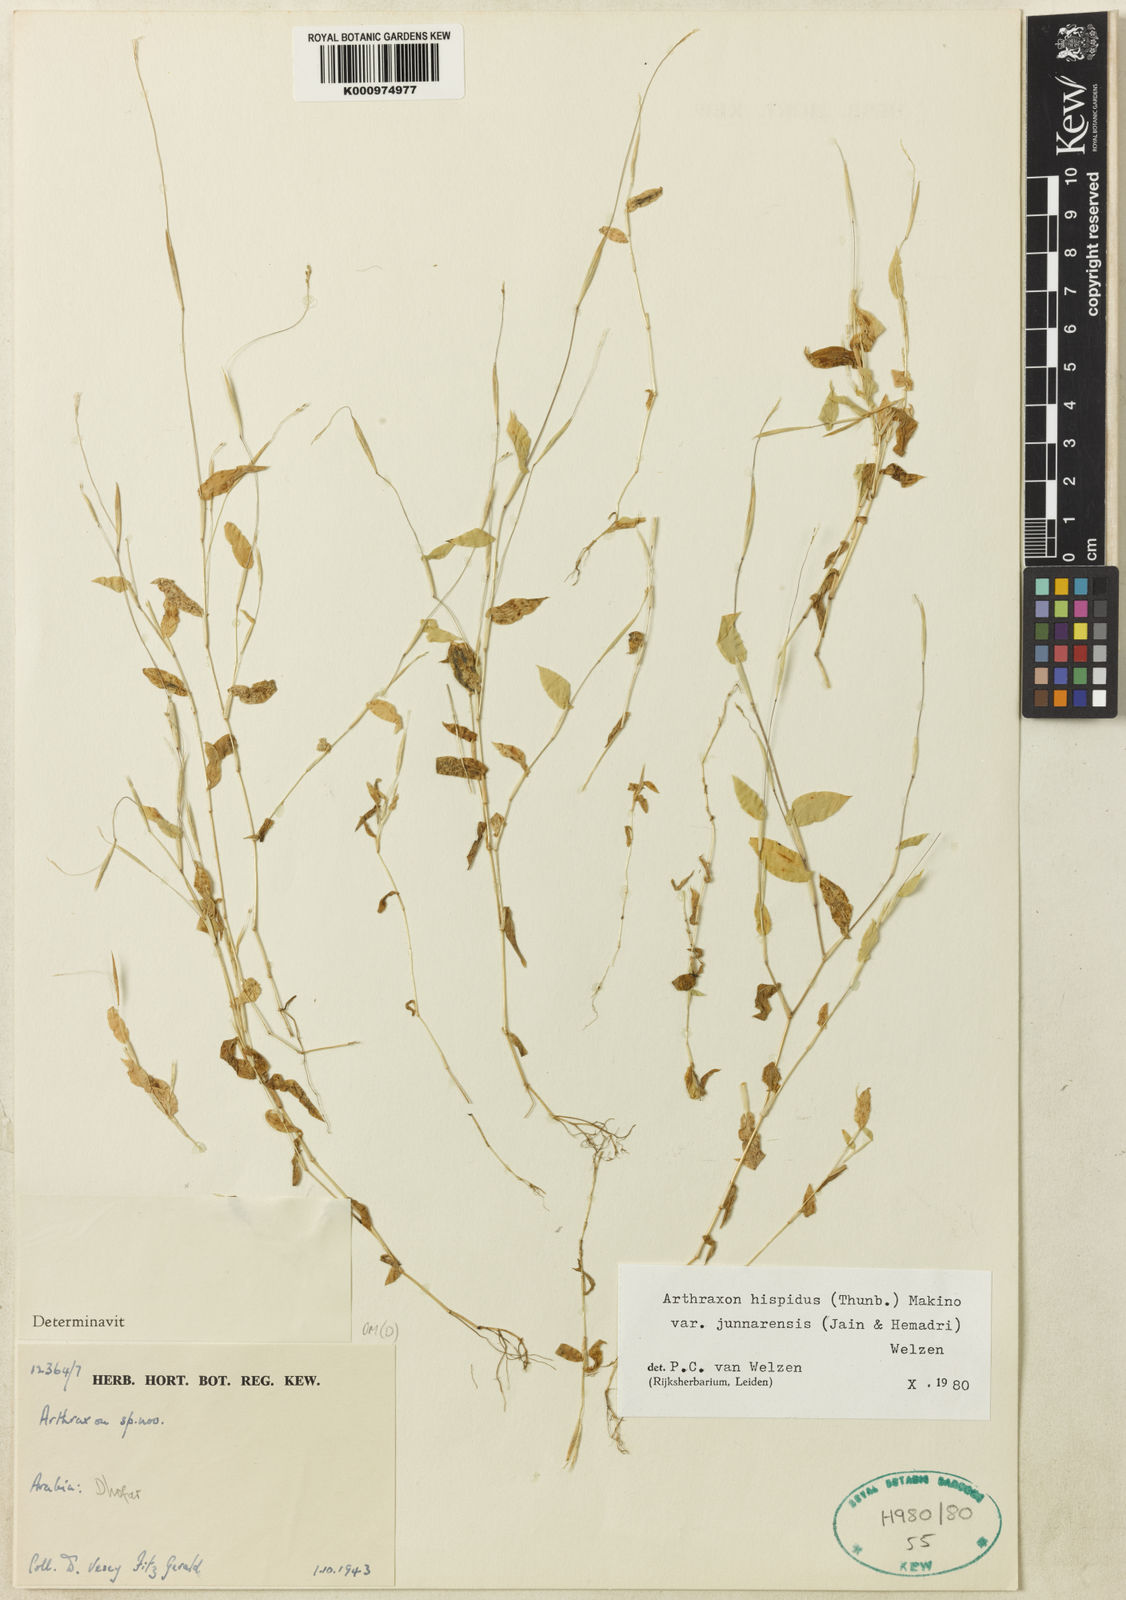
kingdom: Plantae
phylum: Tracheophyta
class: Liliopsida
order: Poales
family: Poaceae
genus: Arthraxon
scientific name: Arthraxon junnarensis
